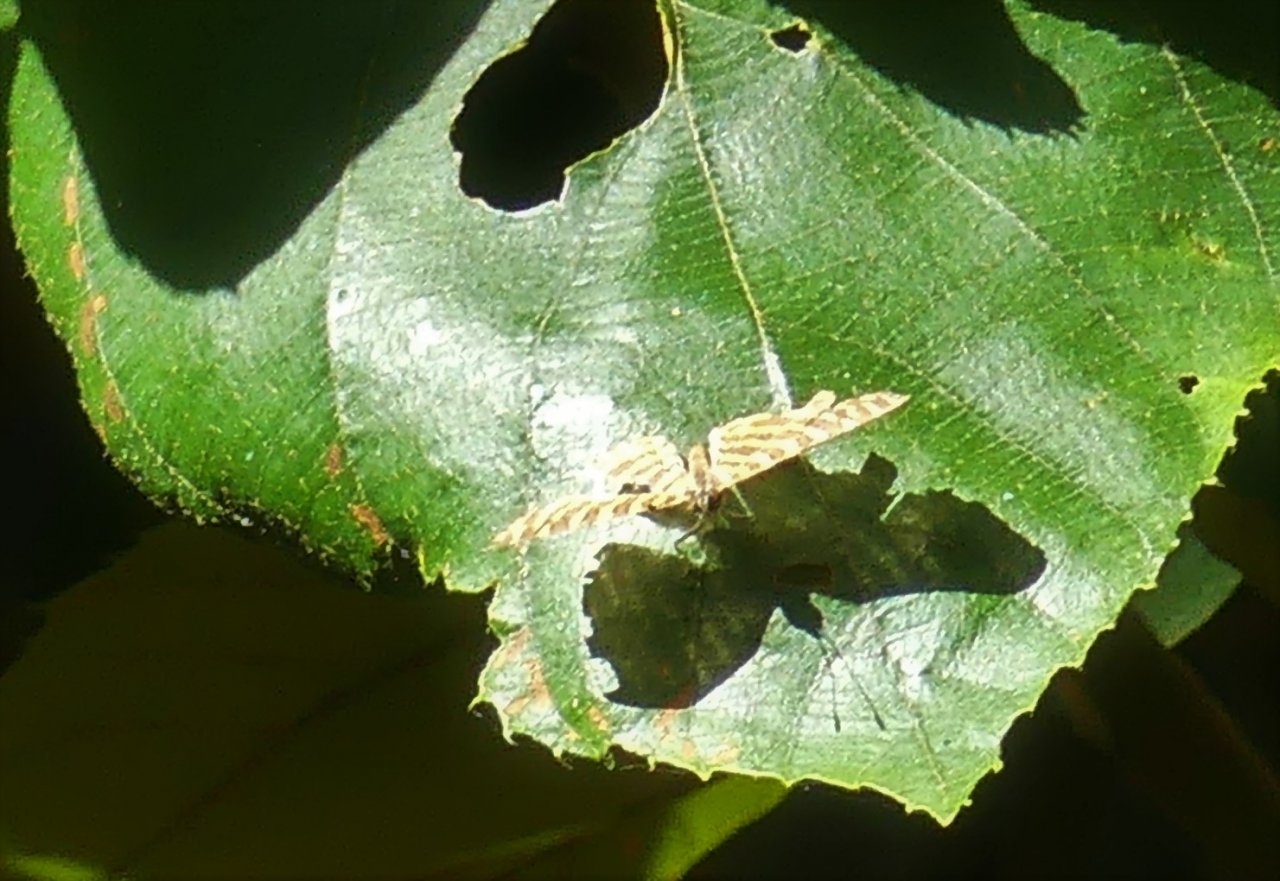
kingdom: Animalia
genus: Hyphilaria
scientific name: Hyphilaria thasus
